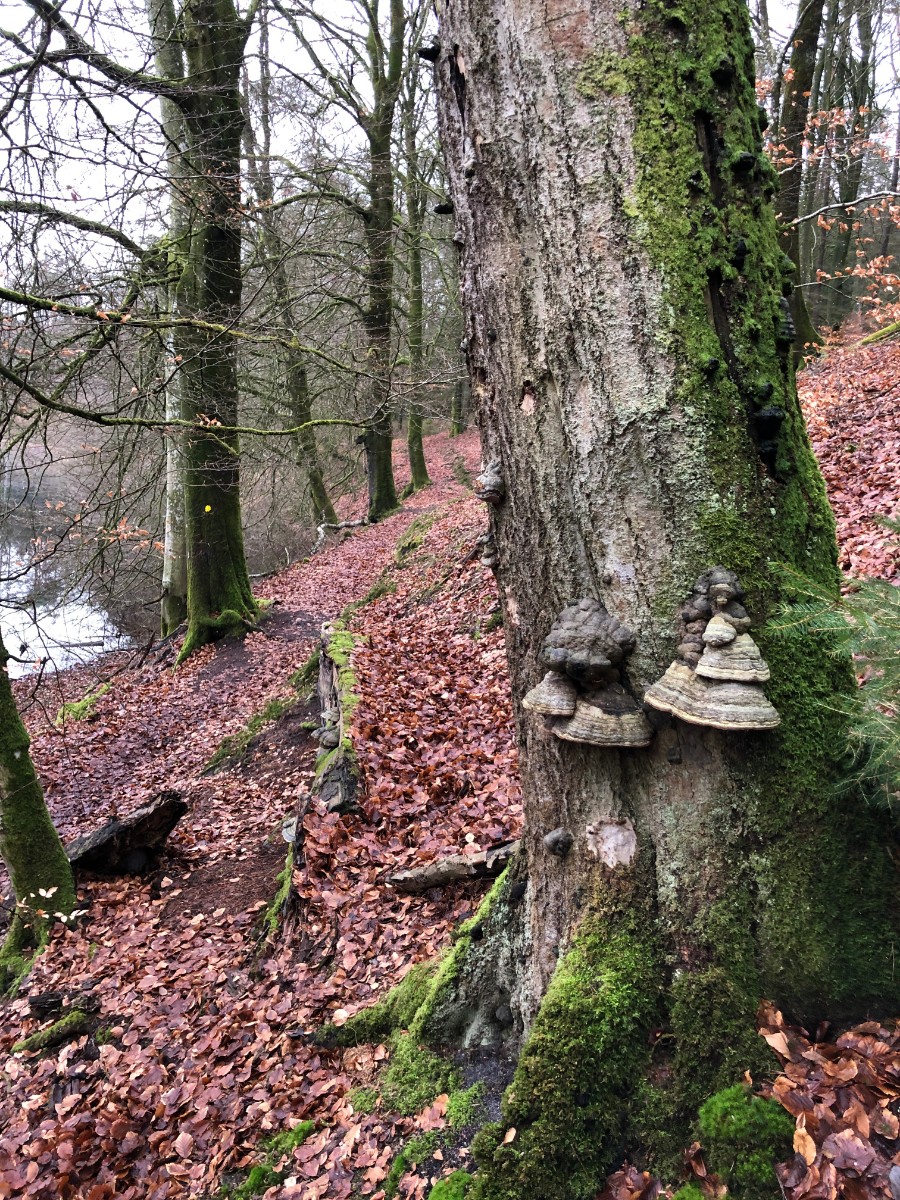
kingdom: Fungi
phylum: Basidiomycota
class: Agaricomycetes
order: Polyporales
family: Polyporaceae
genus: Fomes
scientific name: Fomes fomentarius
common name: tøndersvamp
